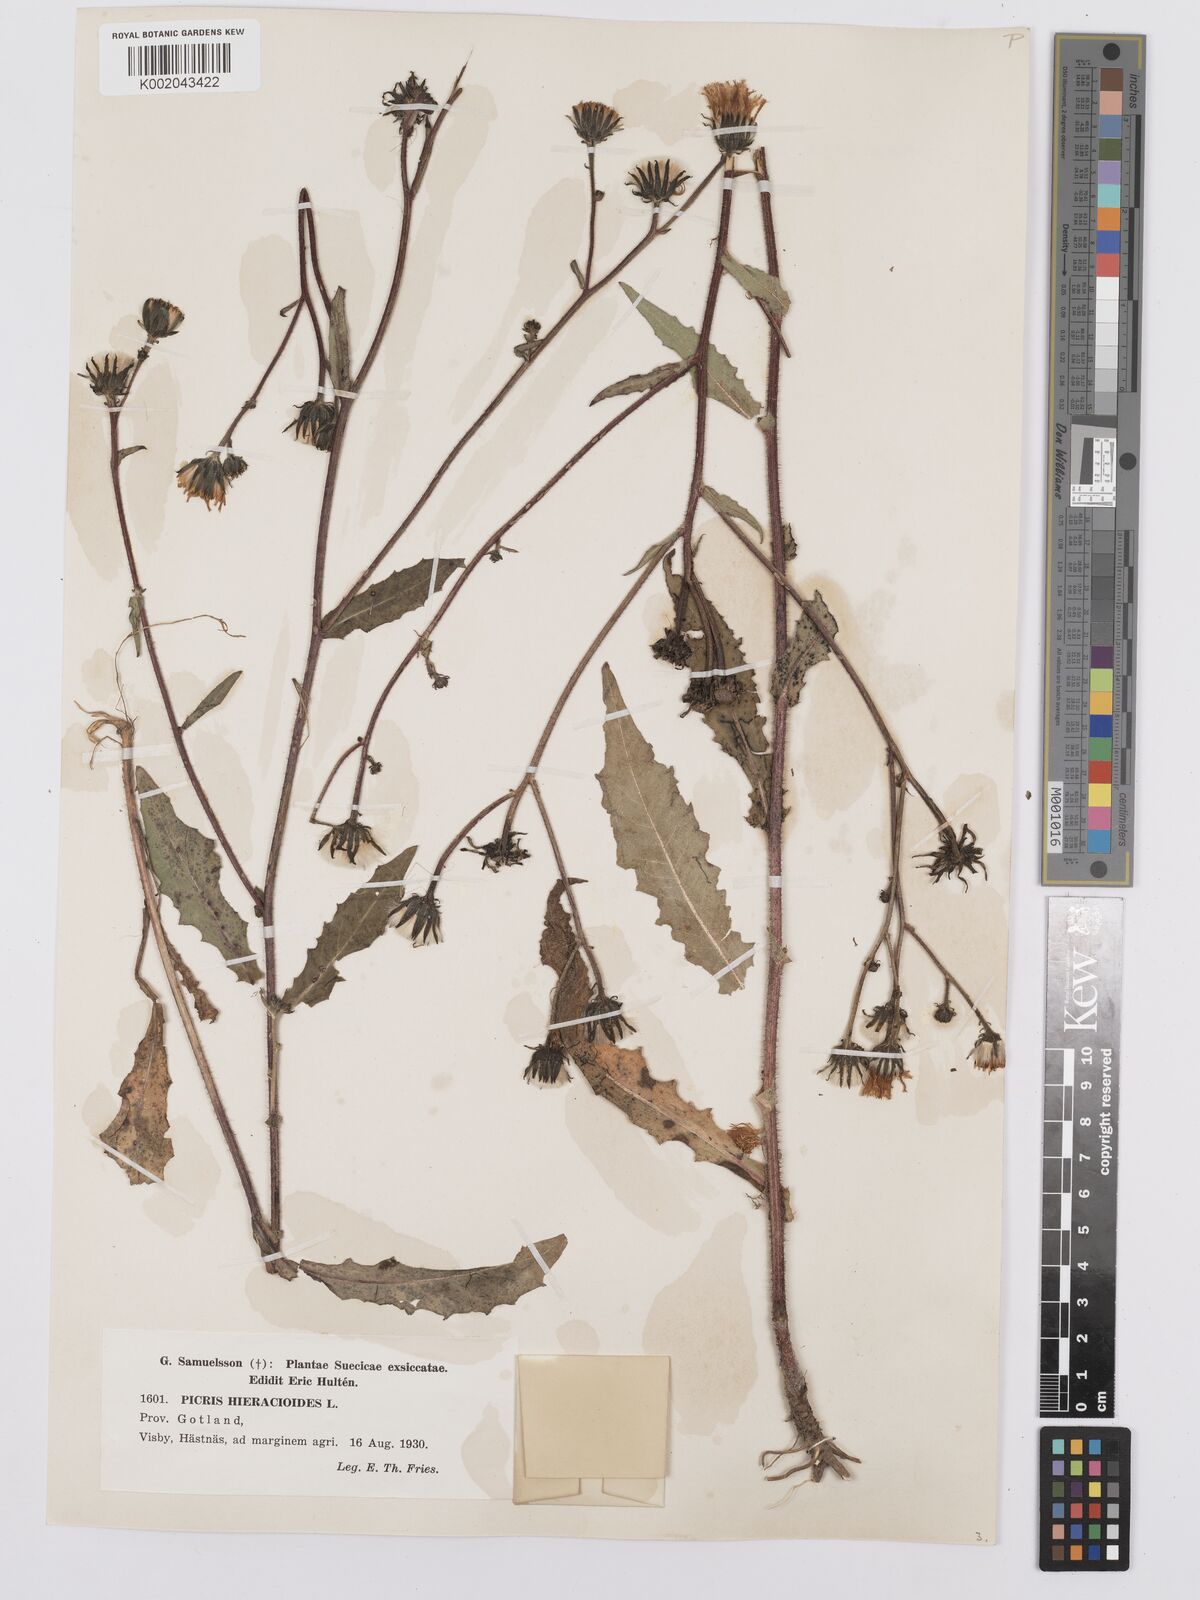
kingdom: Plantae
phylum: Tracheophyta
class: Magnoliopsida
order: Asterales
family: Asteraceae
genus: Picris
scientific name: Picris hieracioides
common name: Hawkweed oxtongue
